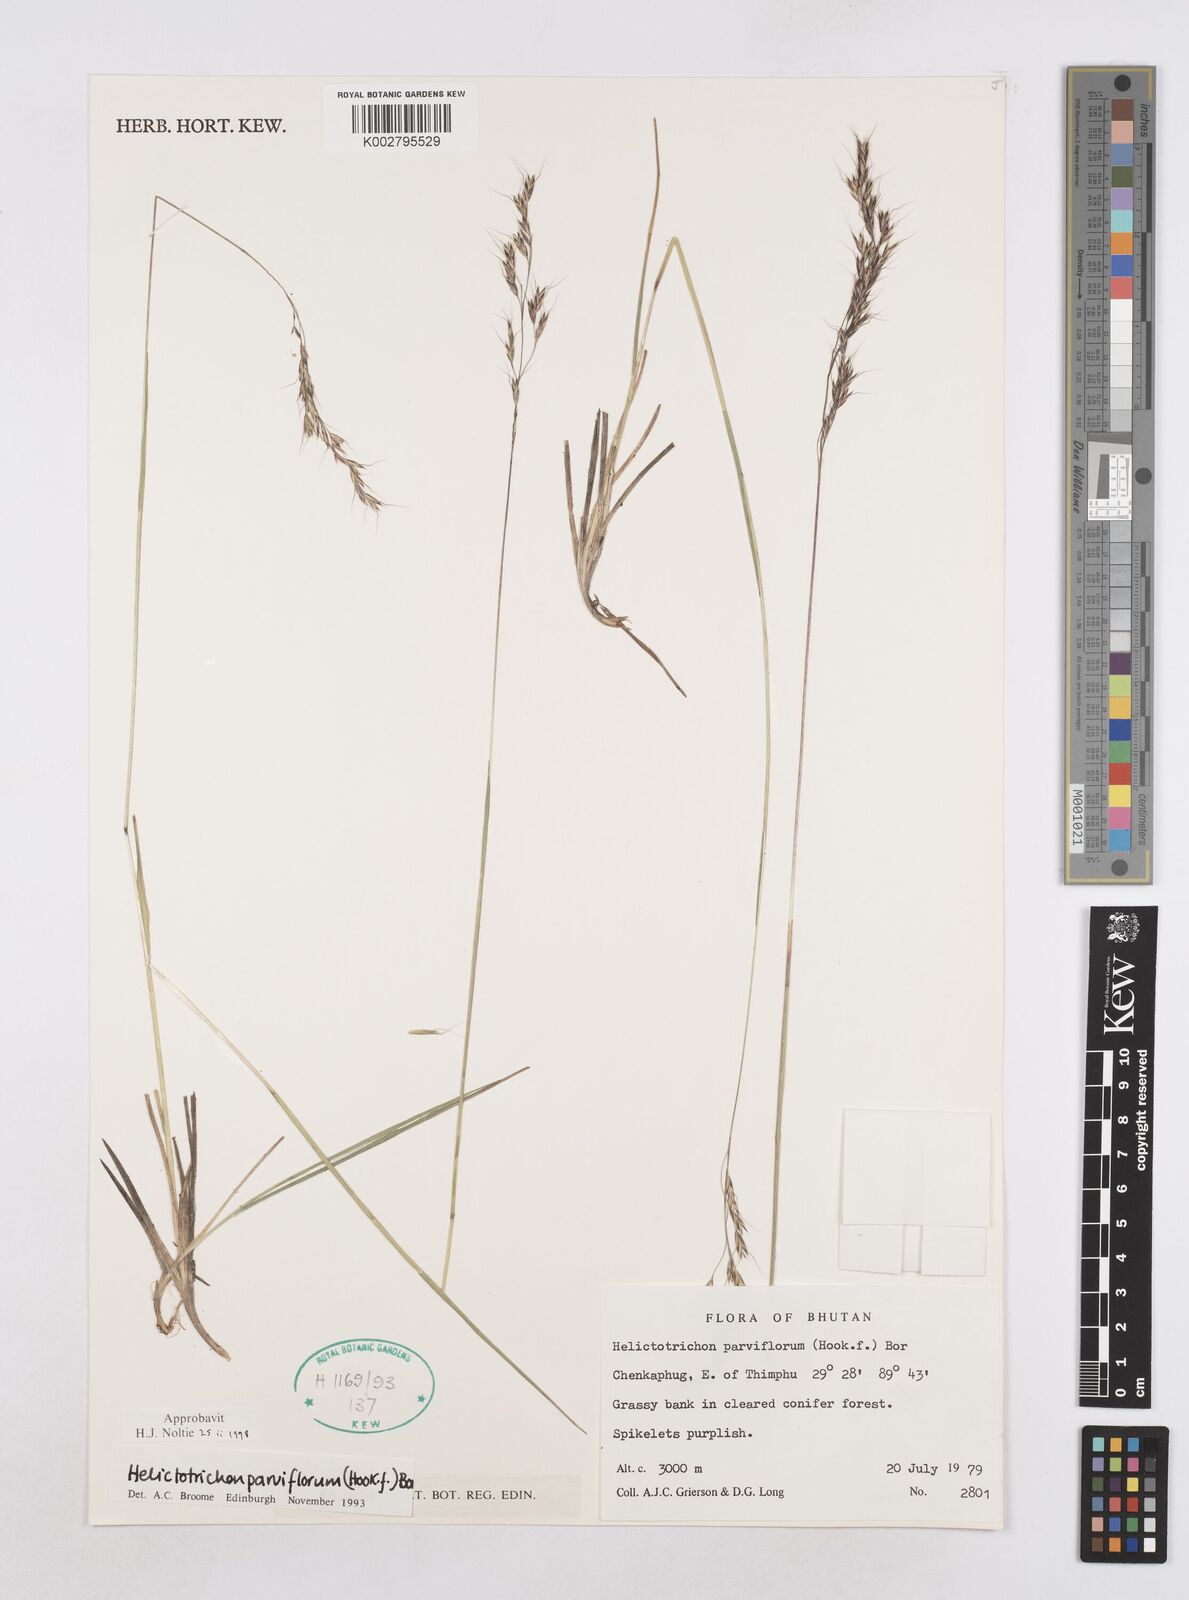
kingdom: Plantae
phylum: Tracheophyta
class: Liliopsida
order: Poales
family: Poaceae
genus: Trisetopsis
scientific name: Trisetopsis junghuhnii
